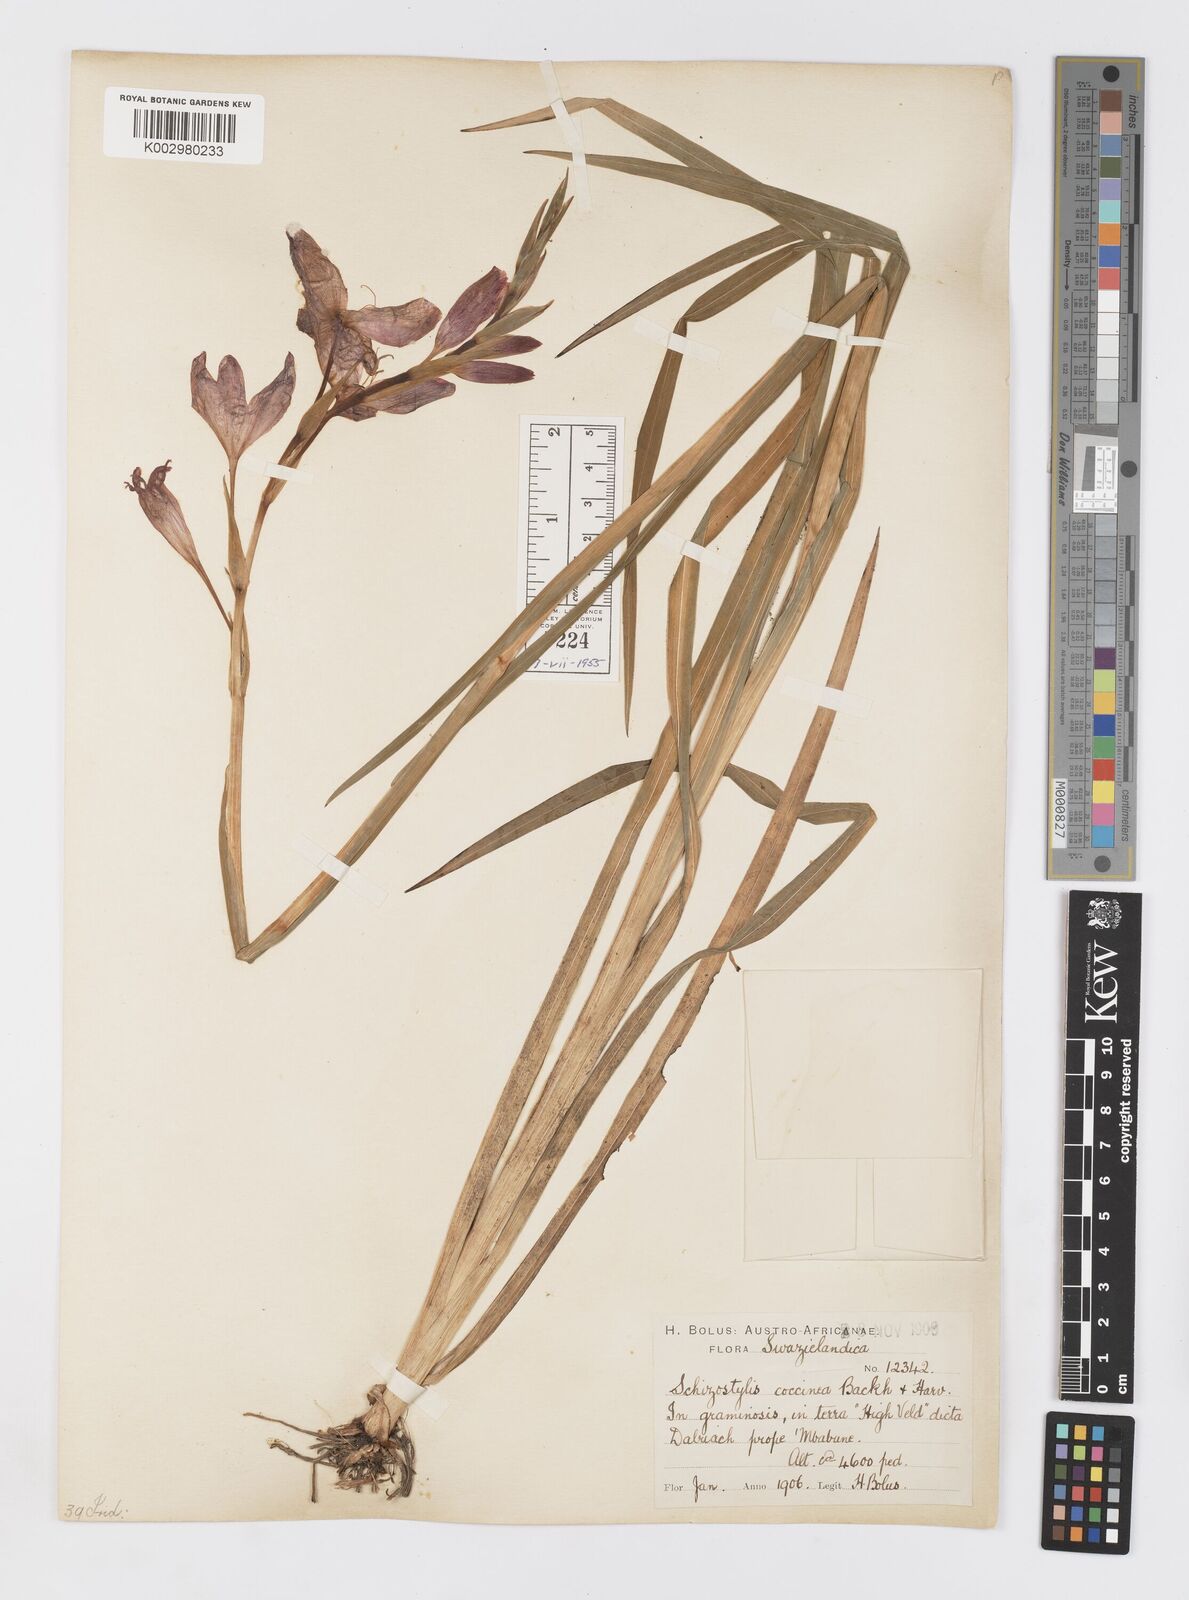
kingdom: Plantae
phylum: Tracheophyta
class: Liliopsida
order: Asparagales
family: Iridaceae
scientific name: Iridaceae
